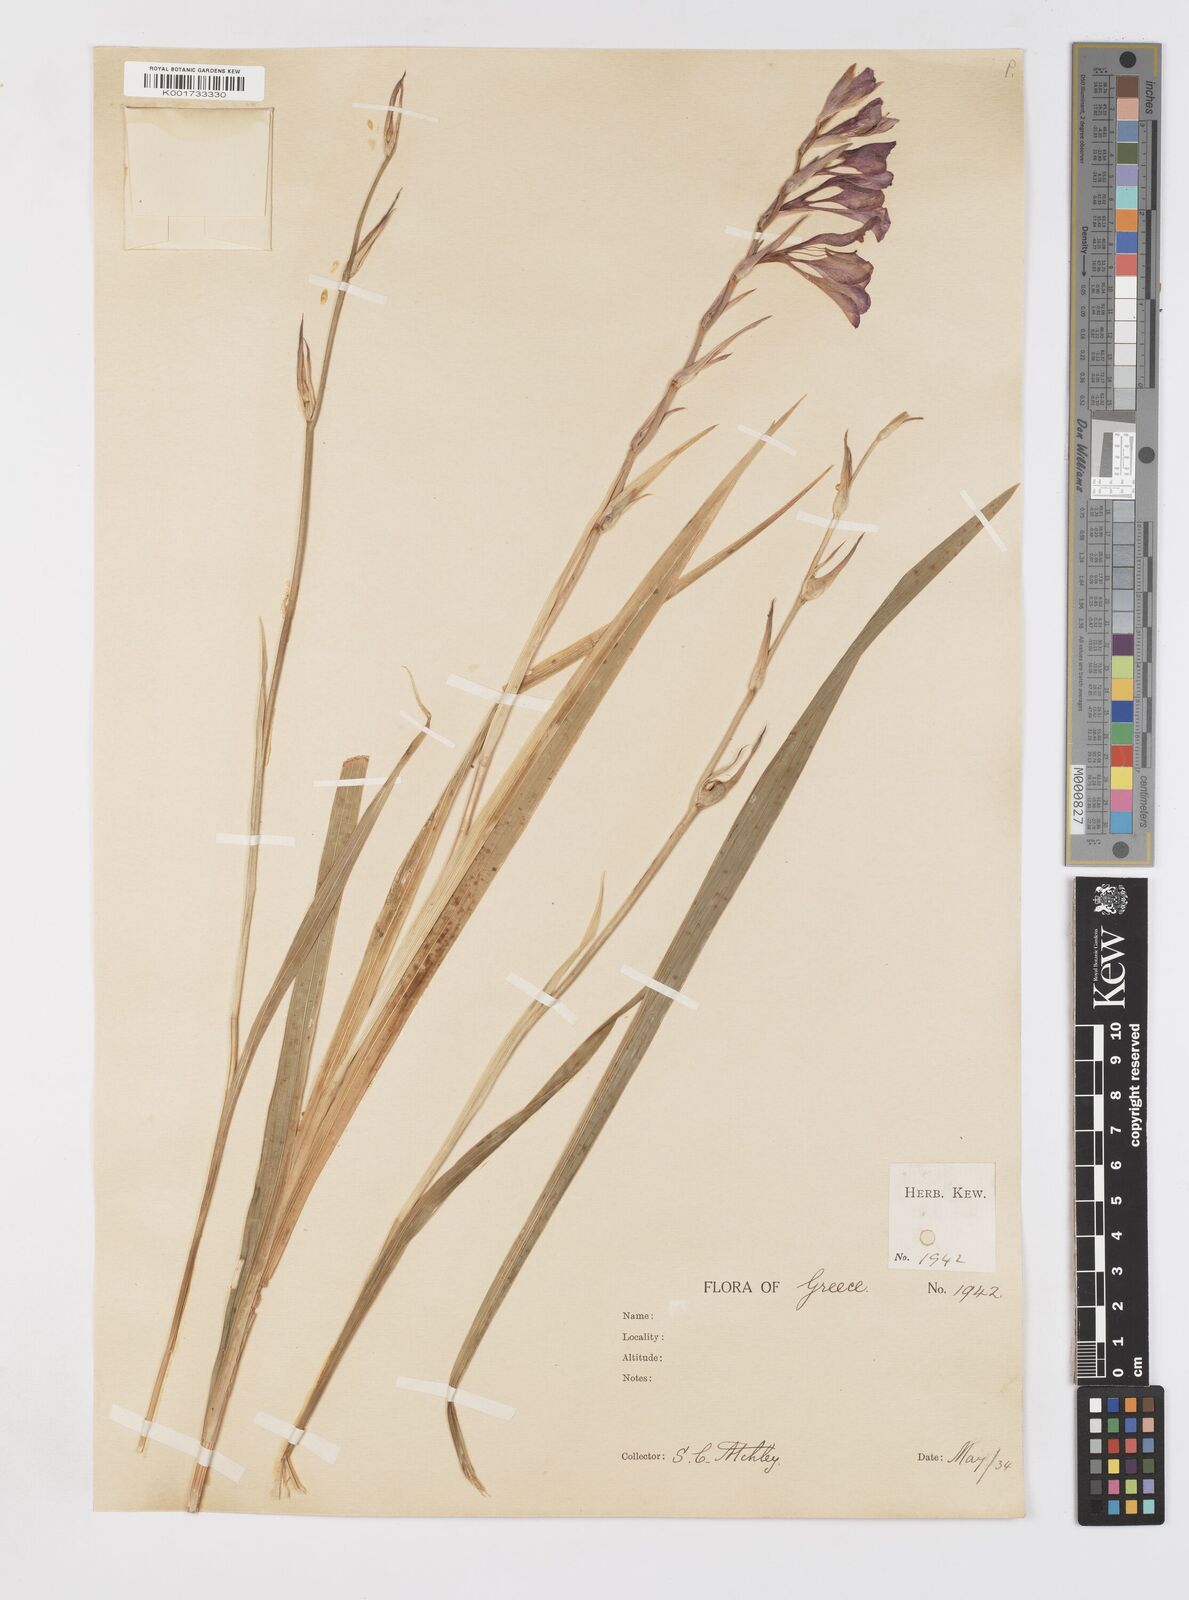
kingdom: Plantae
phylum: Tracheophyta
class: Liliopsida
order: Asparagales
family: Iridaceae
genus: Gladiolus
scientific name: Gladiolus illyricus
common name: Wild gladiolus
